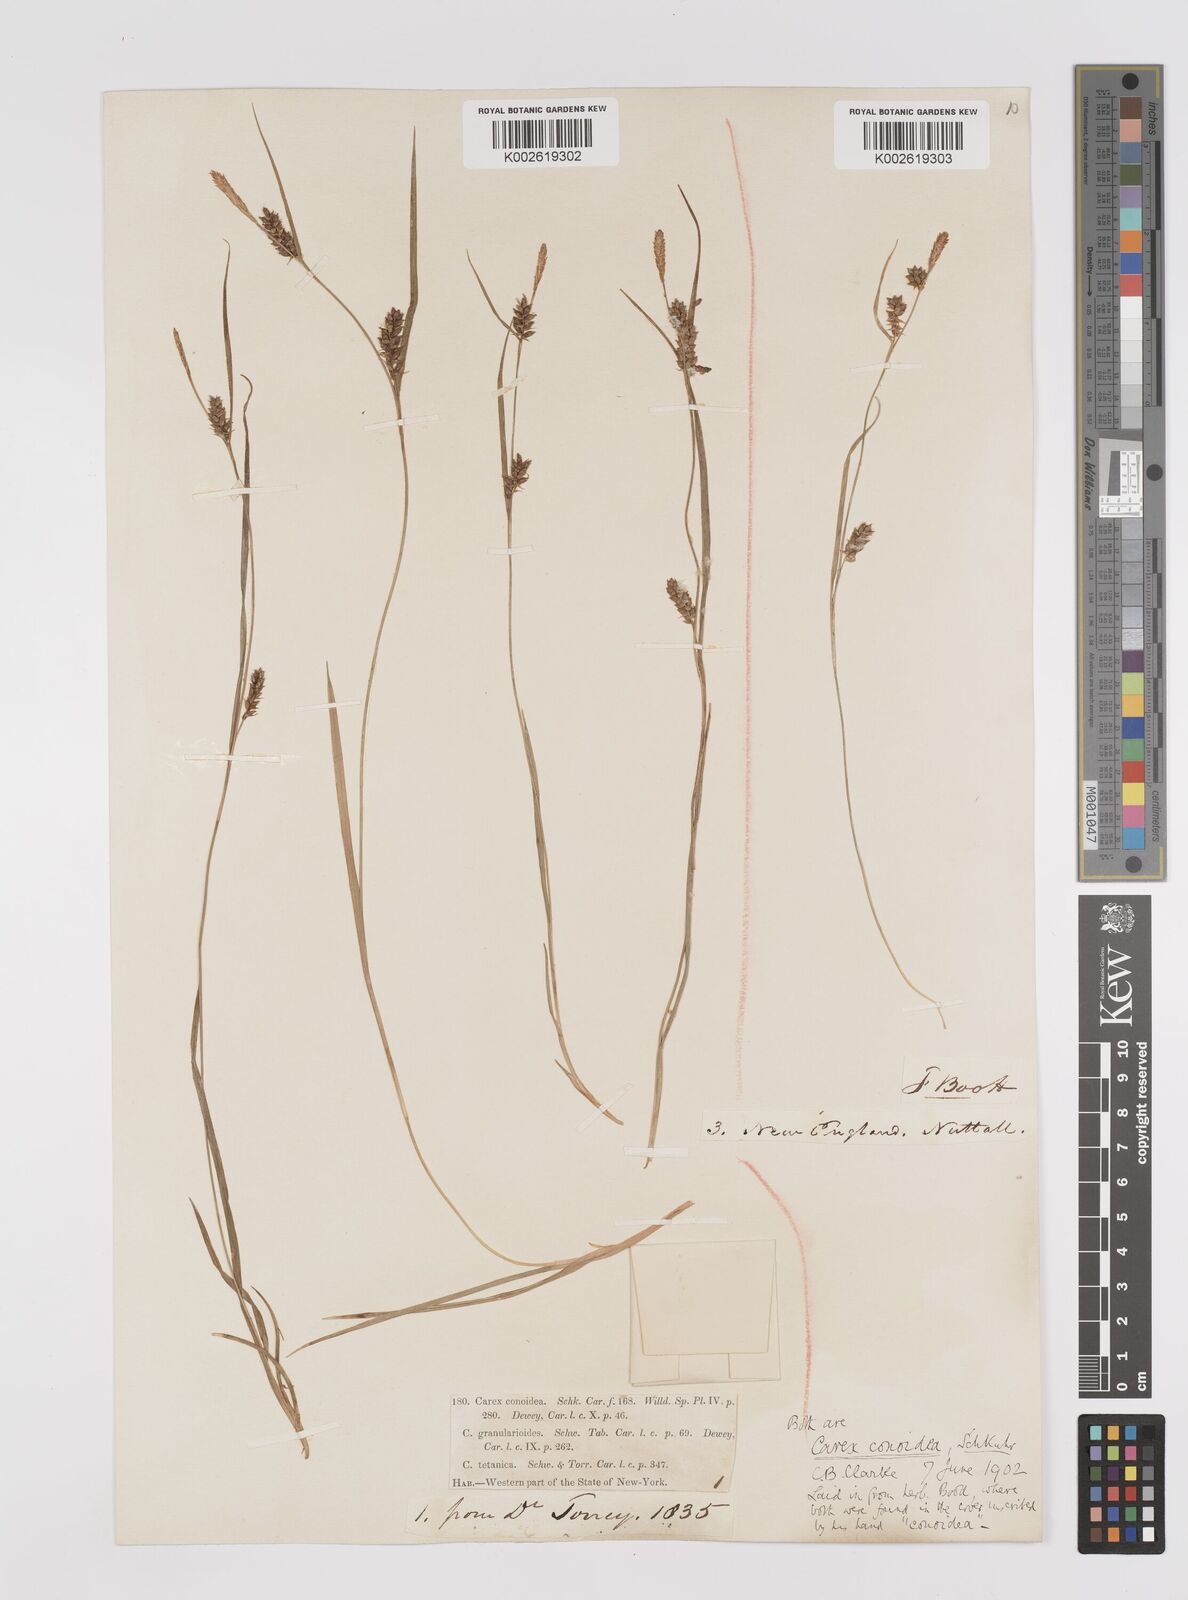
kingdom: Plantae
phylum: Tracheophyta
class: Liliopsida
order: Poales
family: Cyperaceae
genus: Carex
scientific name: Carex conoidea
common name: Cone shaped sedge
